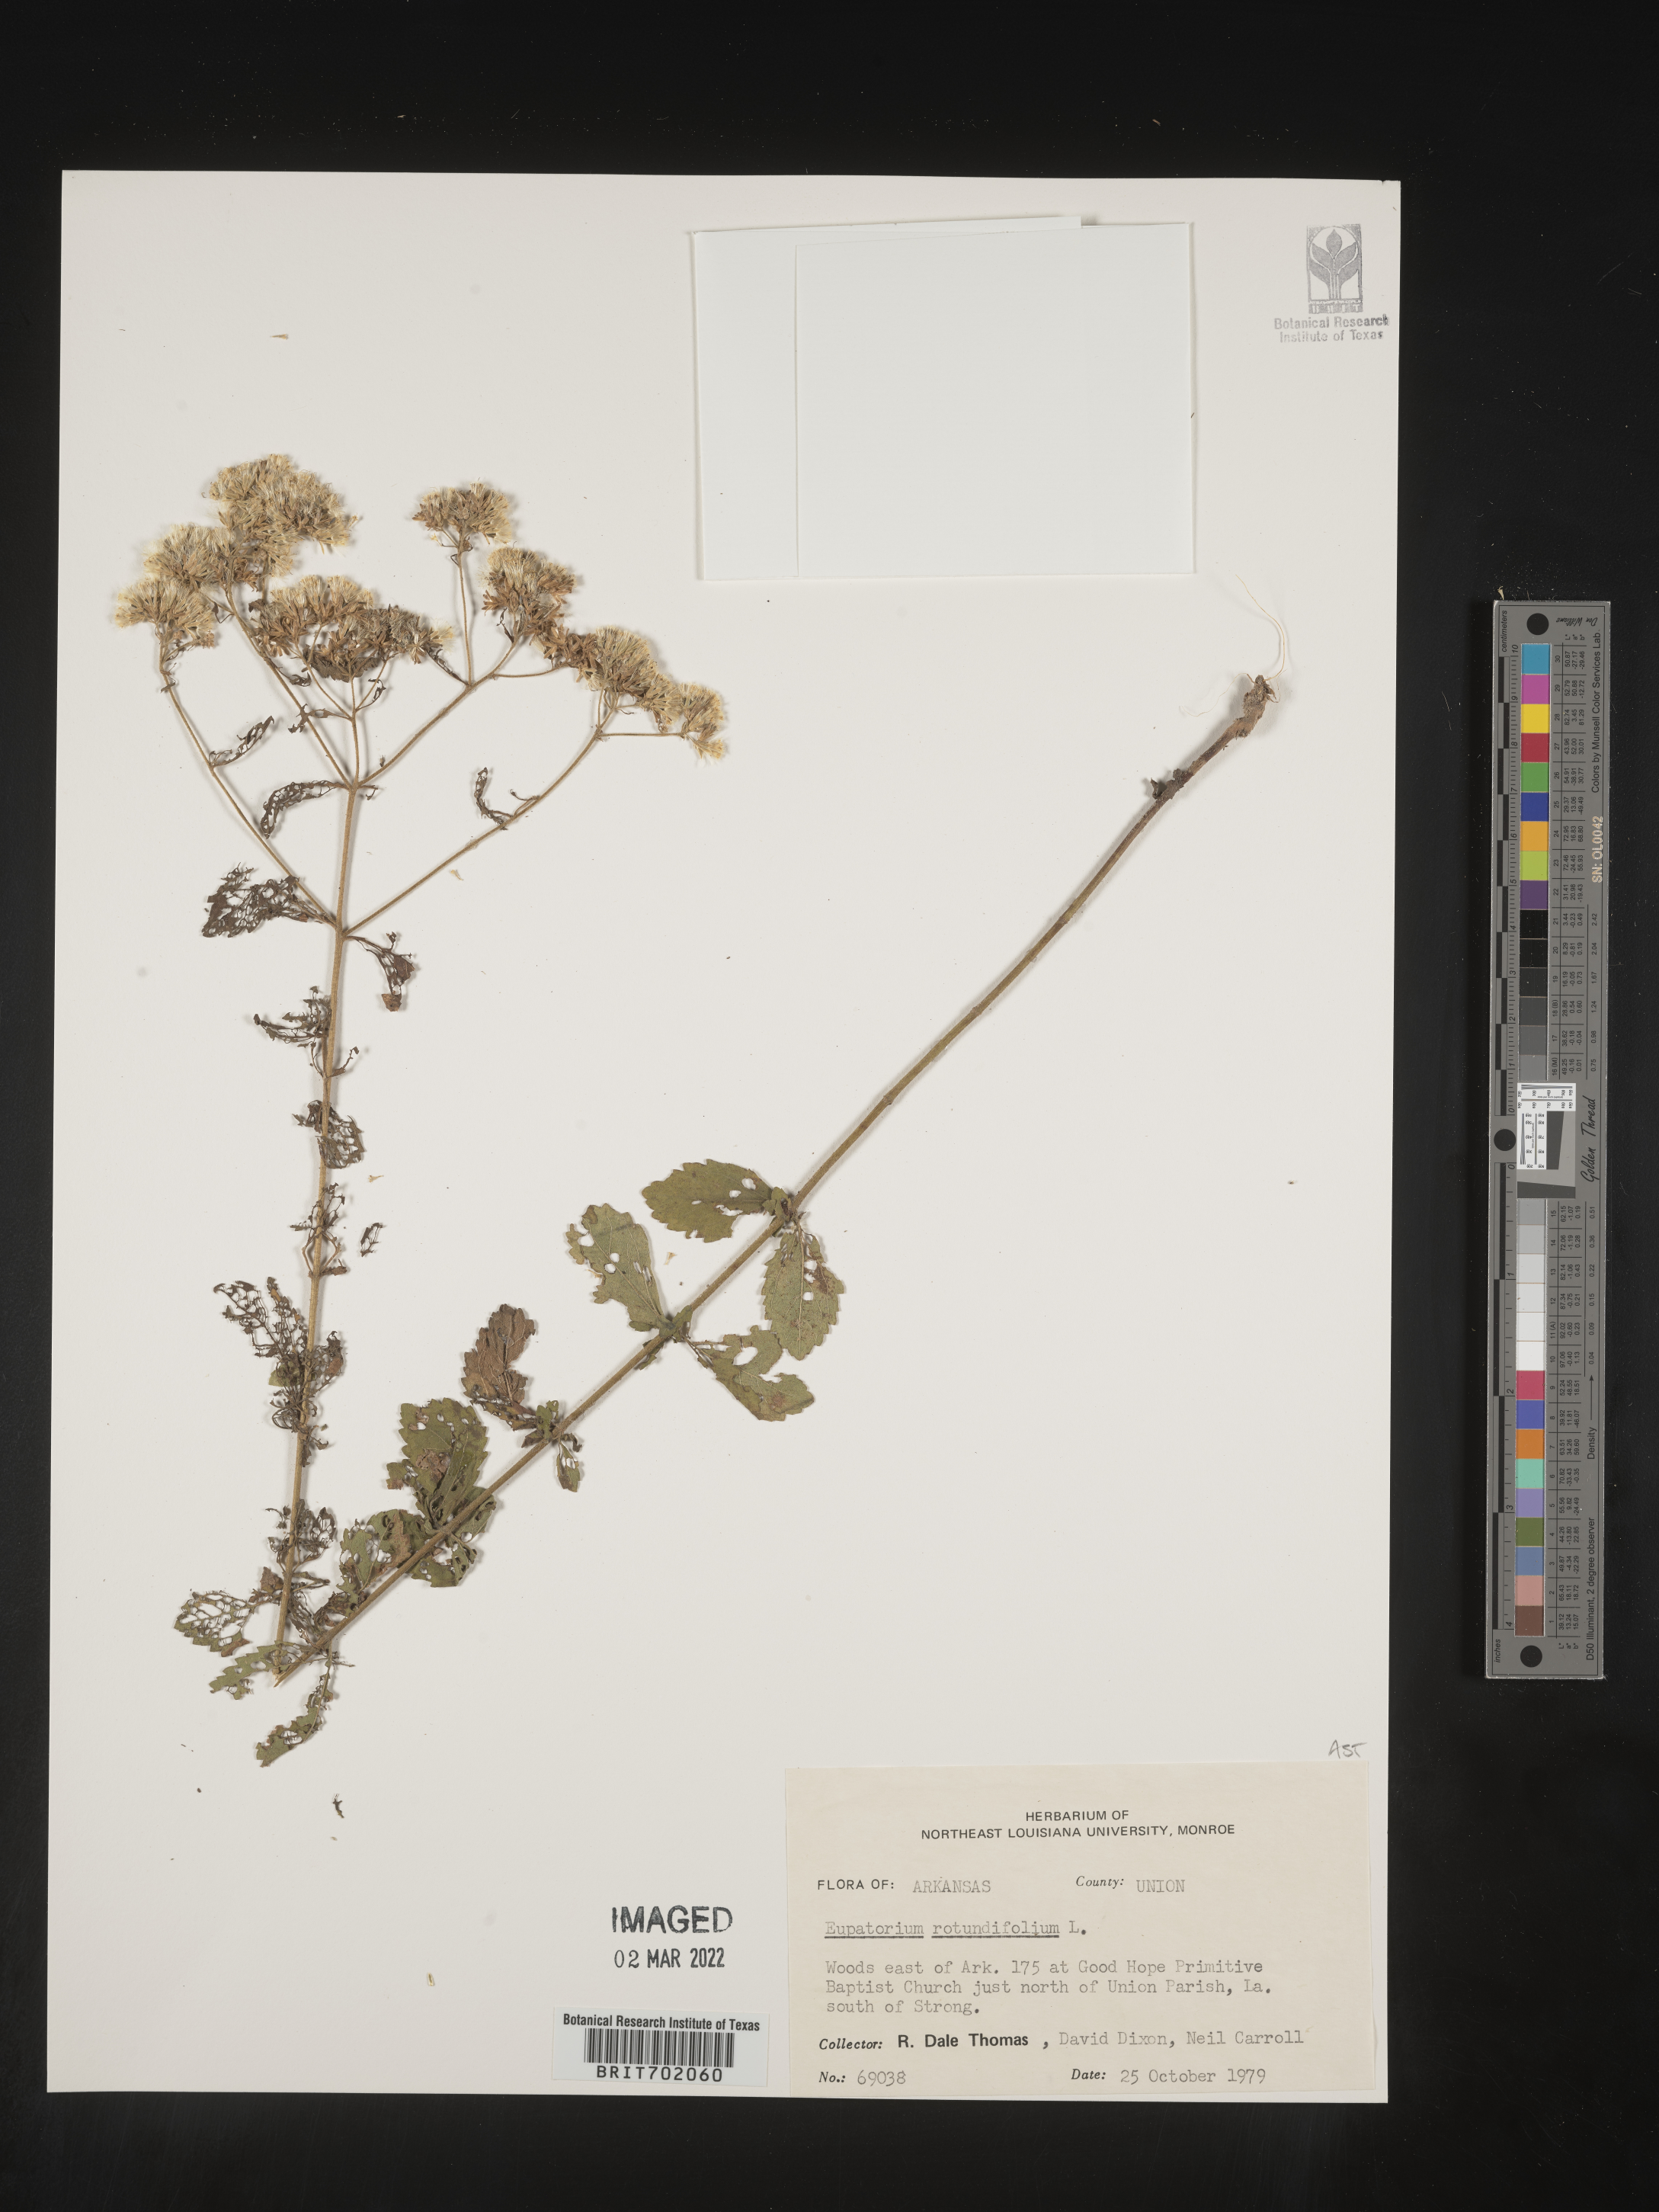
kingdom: Plantae
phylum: Tracheophyta
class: Magnoliopsida
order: Asterales
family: Asteraceae
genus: Eupatorium
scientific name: Eupatorium rotundifolium
